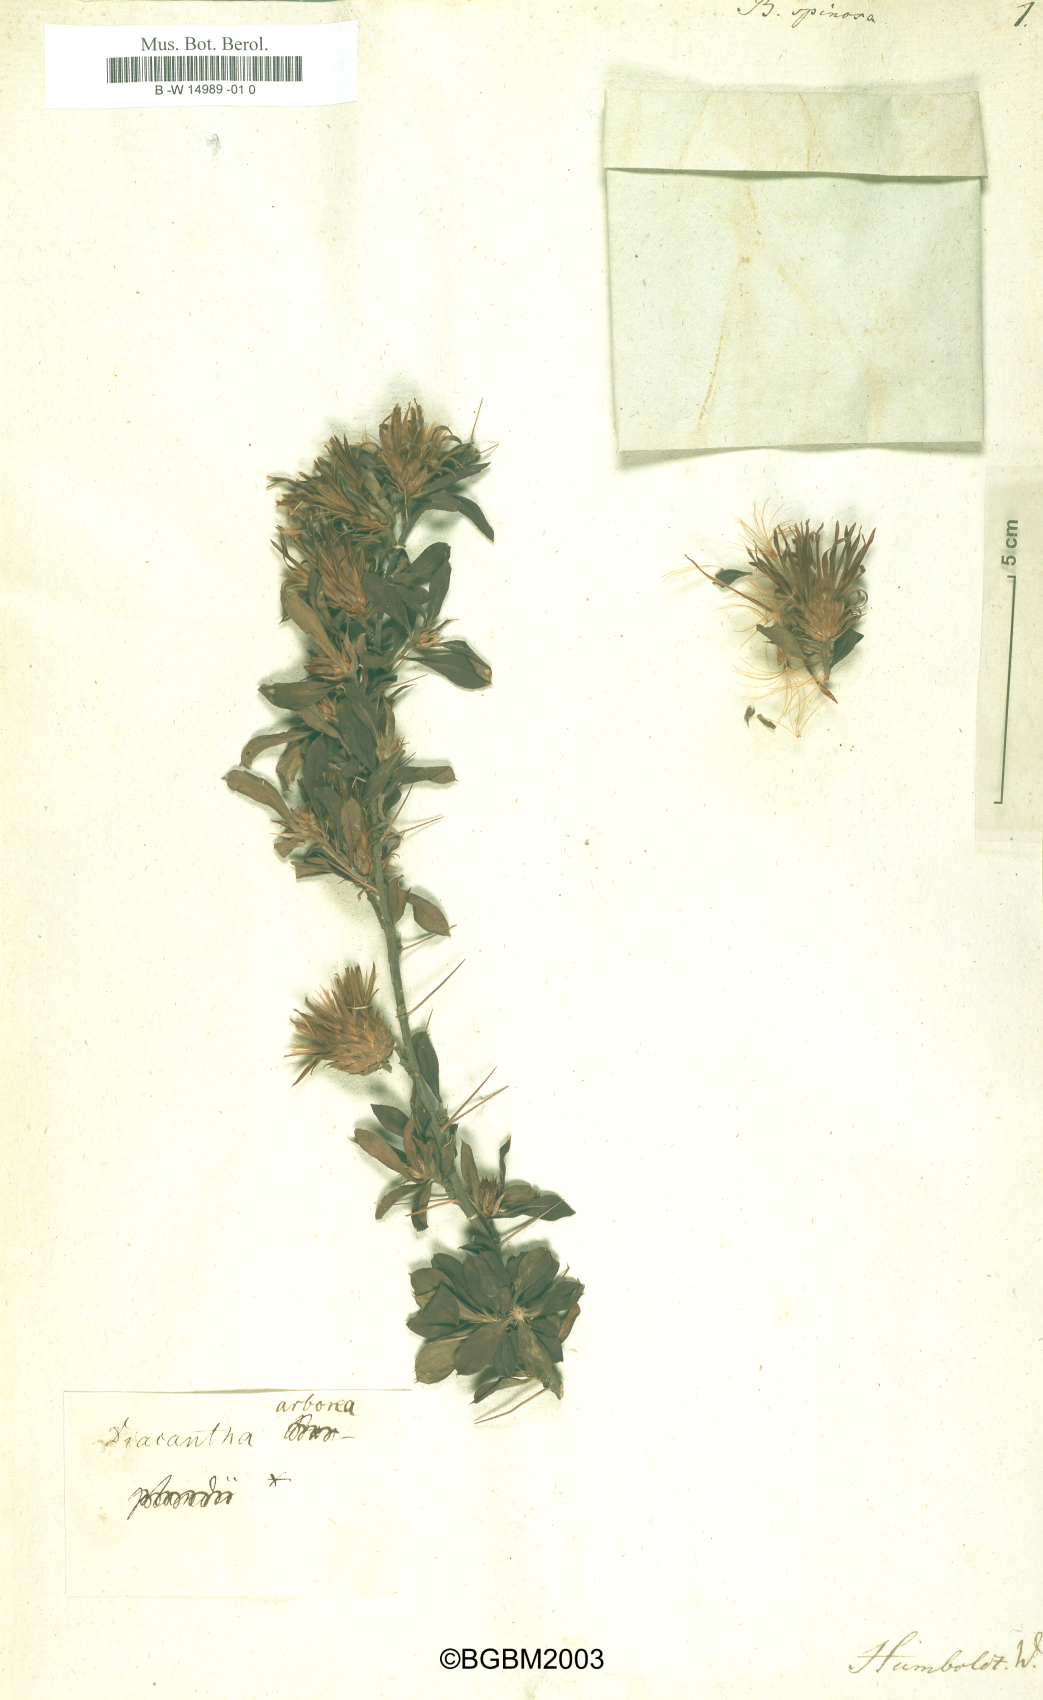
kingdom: Plantae
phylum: Tracheophyta
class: Magnoliopsida
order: Asterales
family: Asteraceae
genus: Barnadesia
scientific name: Barnadesia spinosa
